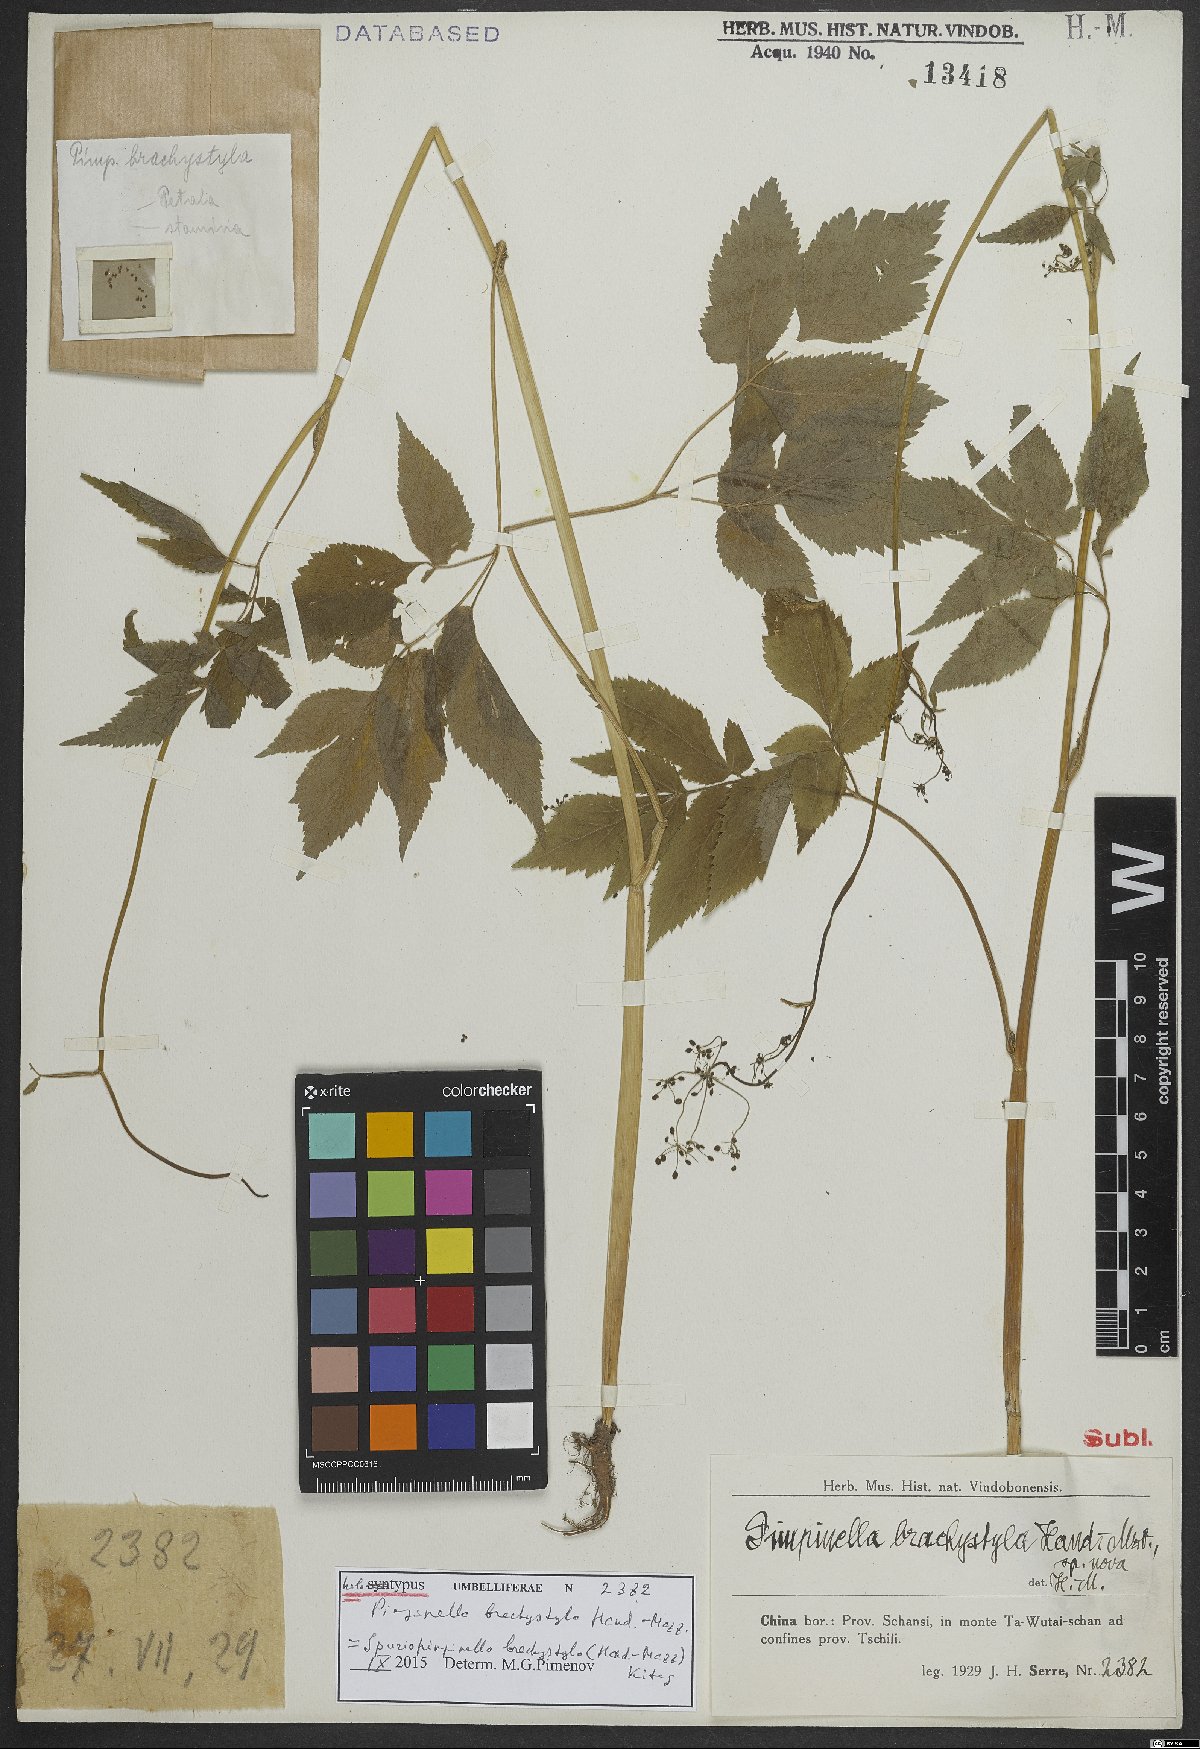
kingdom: Plantae
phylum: Tracheophyta
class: Magnoliopsida
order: Apiales
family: Apiaceae
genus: Spuriopimpinella
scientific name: Spuriopimpinella brachystyla
